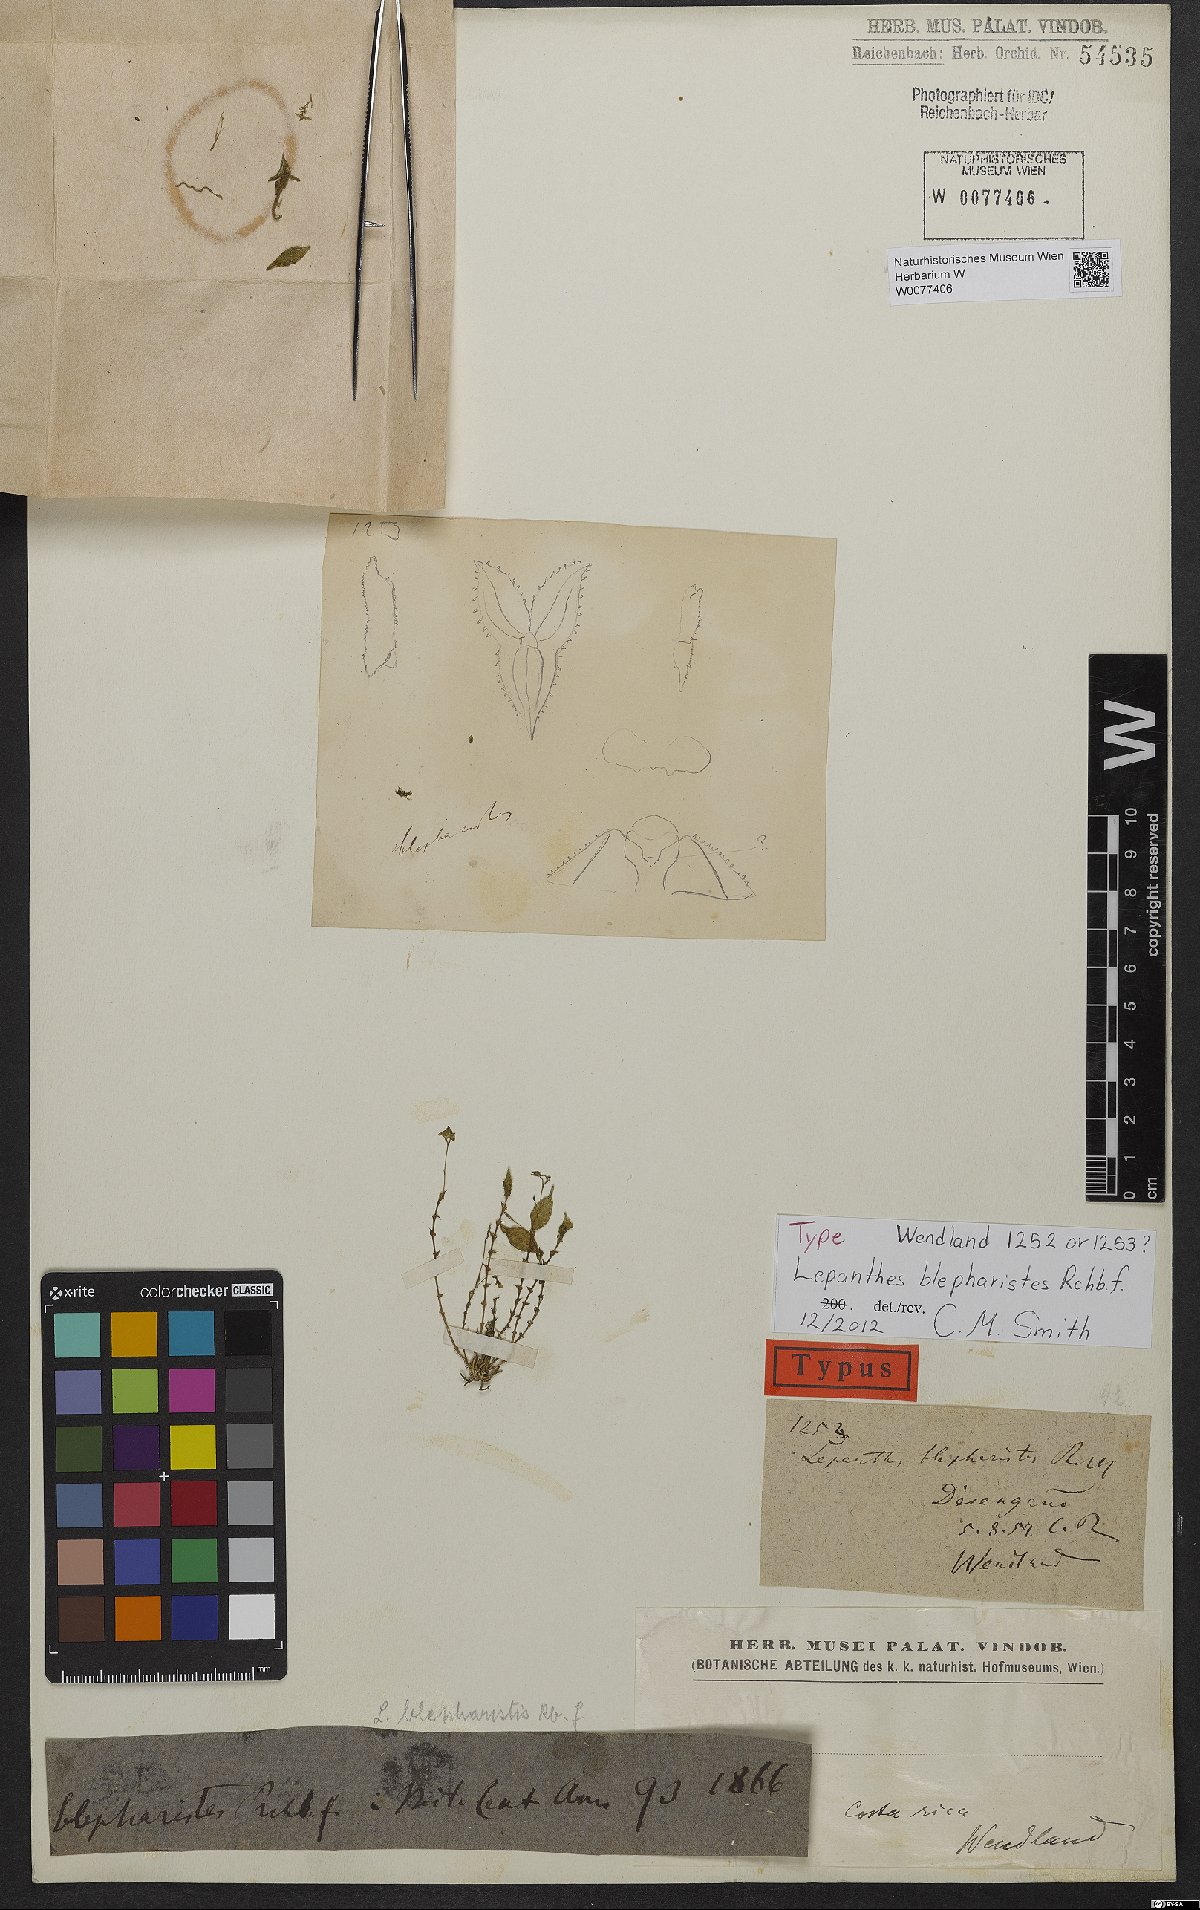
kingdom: Plantae
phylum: Tracheophyta
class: Liliopsida
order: Asparagales
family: Orchidaceae
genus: Lepanthes
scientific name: Lepanthes blepharistes
